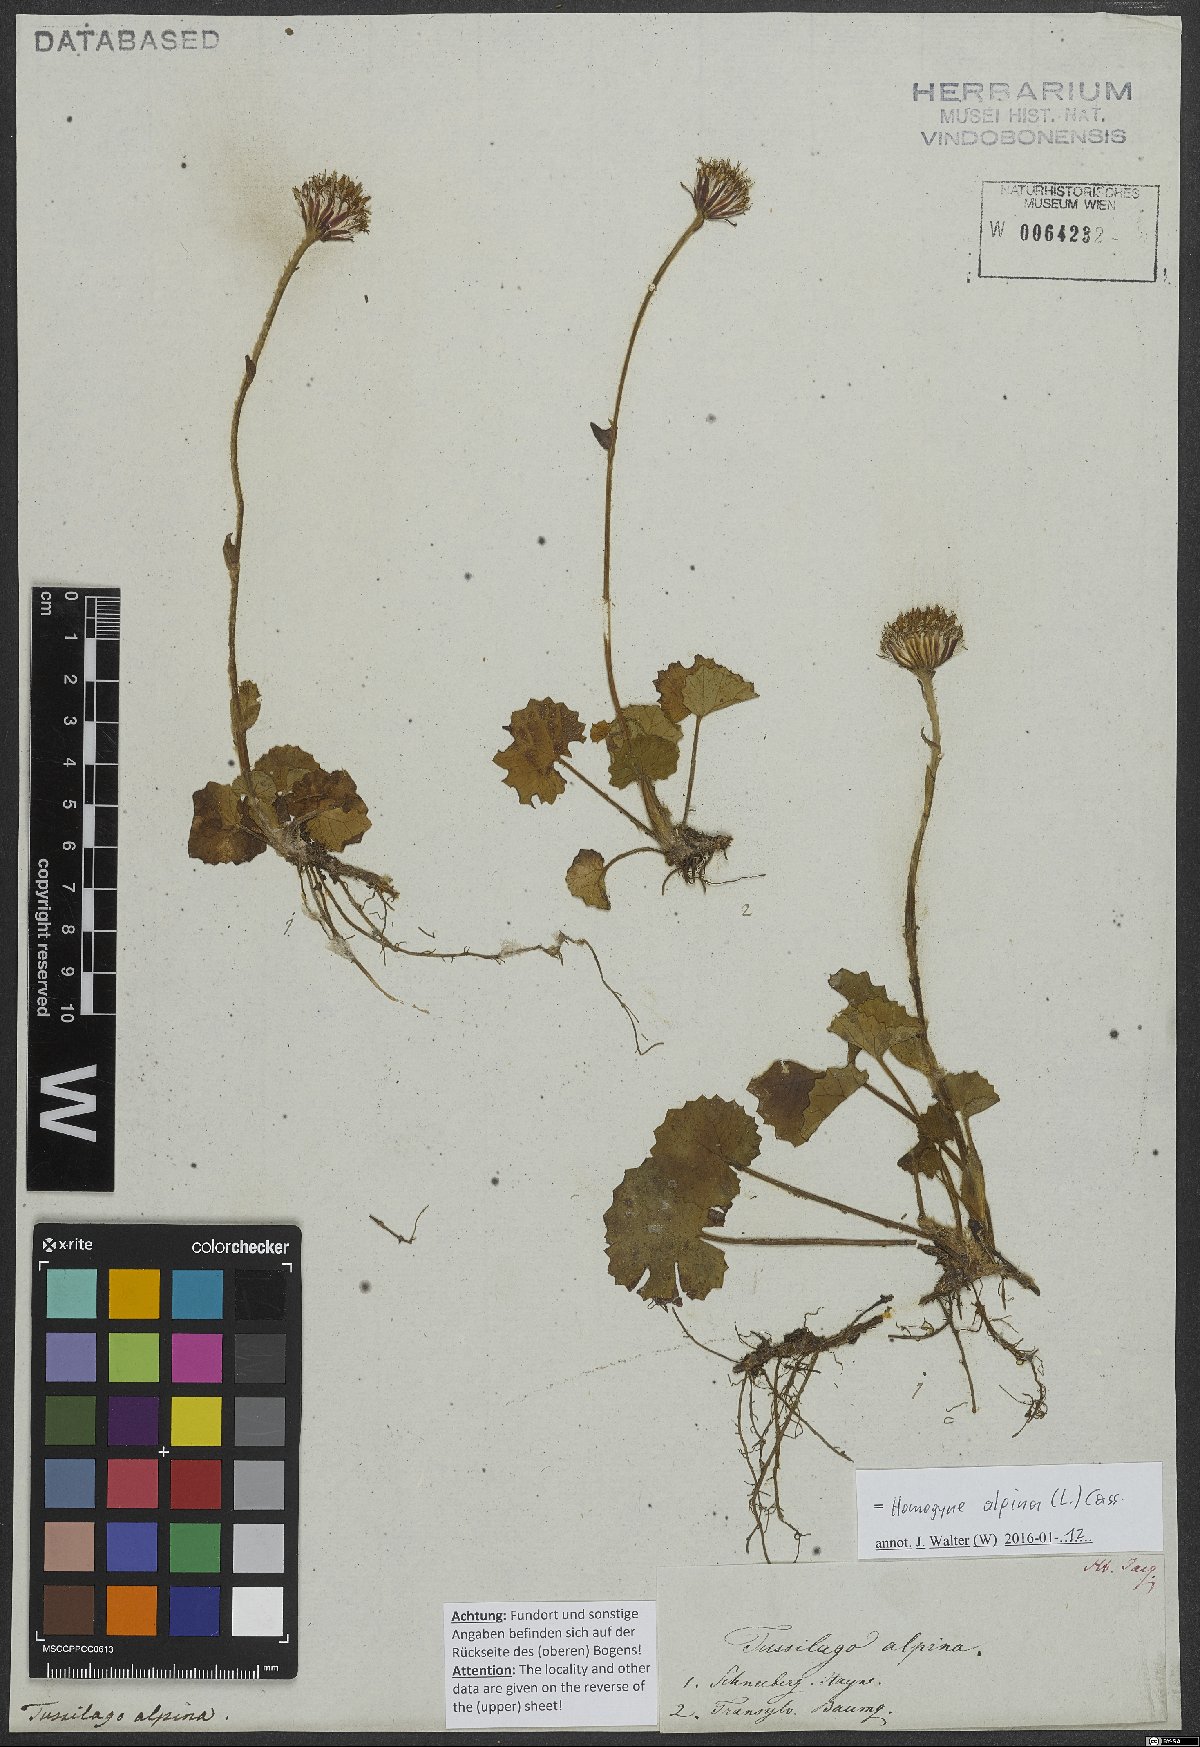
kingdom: Plantae
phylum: Tracheophyta
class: Magnoliopsida
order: Asterales
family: Asteraceae
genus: Homogyne
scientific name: Homogyne alpina
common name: Purple colt's-foot
